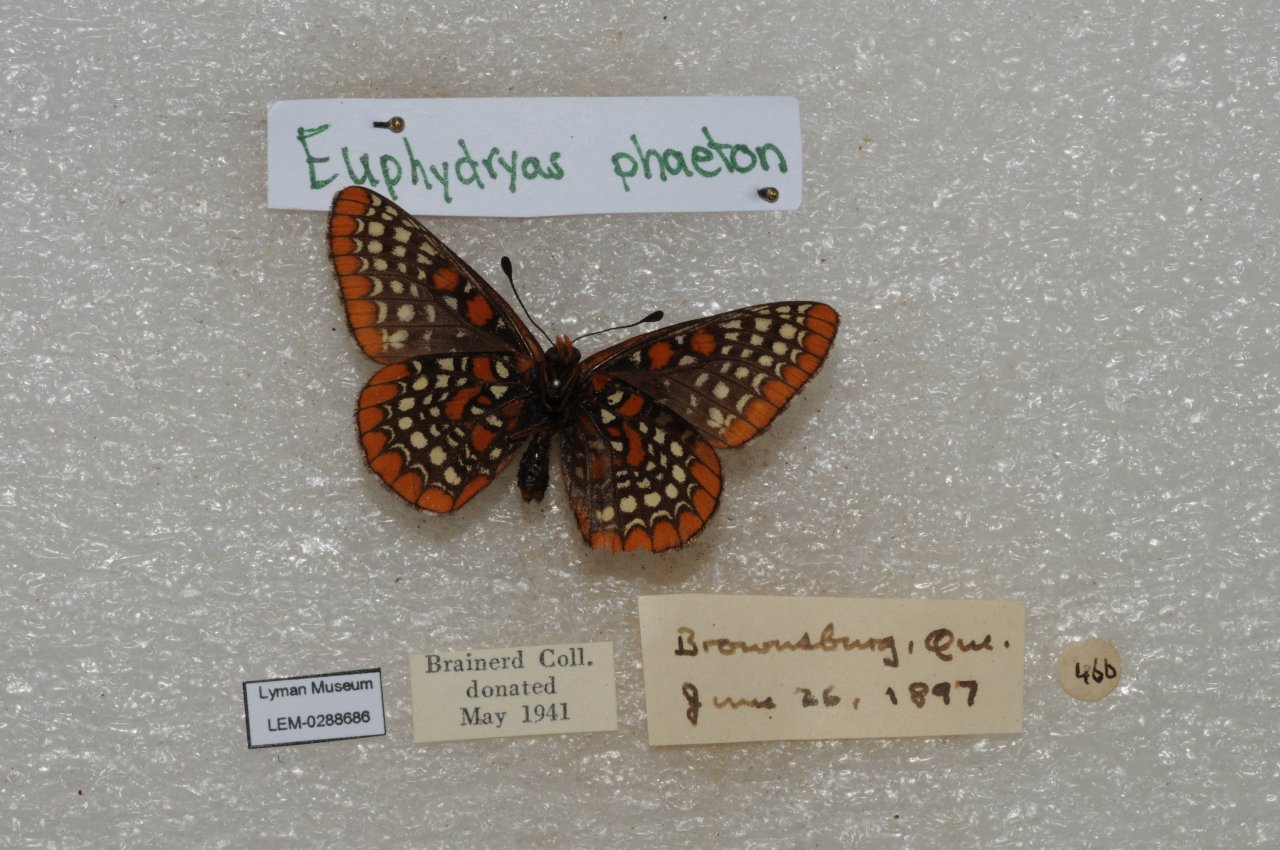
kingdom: Animalia
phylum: Arthropoda
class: Insecta
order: Lepidoptera
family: Nymphalidae
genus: Euphydryas
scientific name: Euphydryas phaeton
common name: Baltimore Checkerspot
